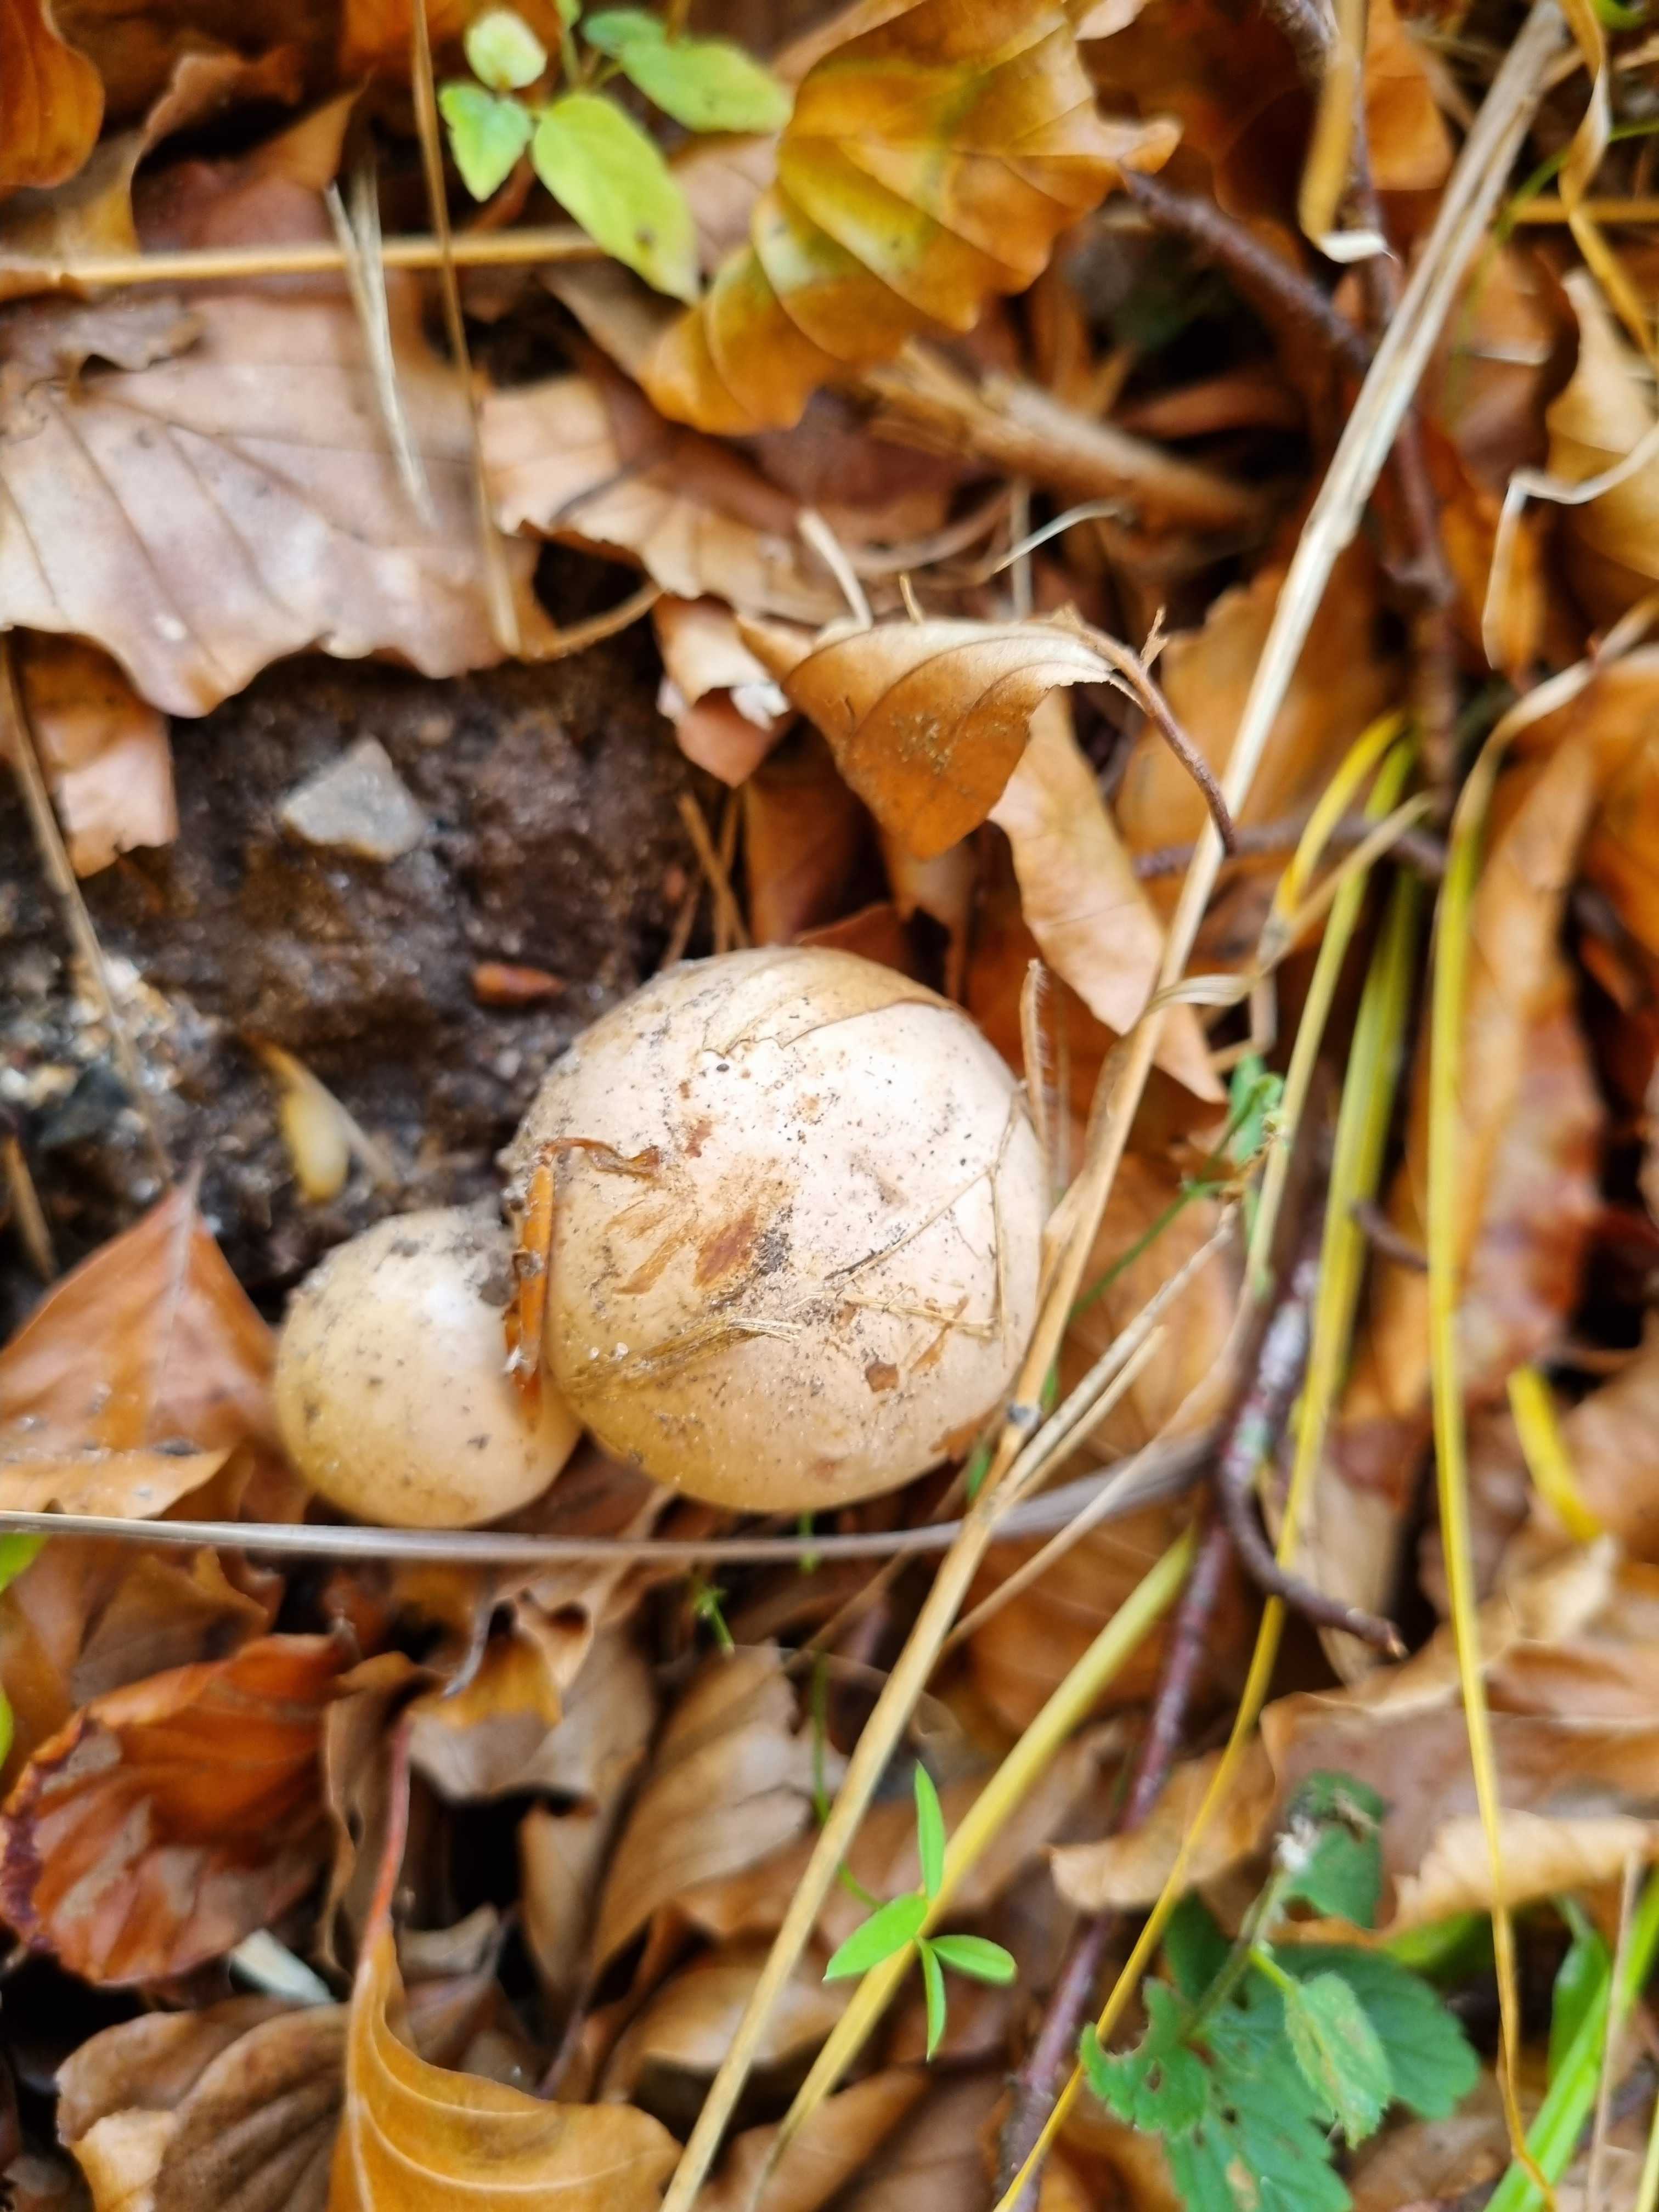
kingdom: Fungi
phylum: Basidiomycota
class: Agaricomycetes
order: Agaricales
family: Cortinariaceae
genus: Cortinarius
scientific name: Cortinarius
